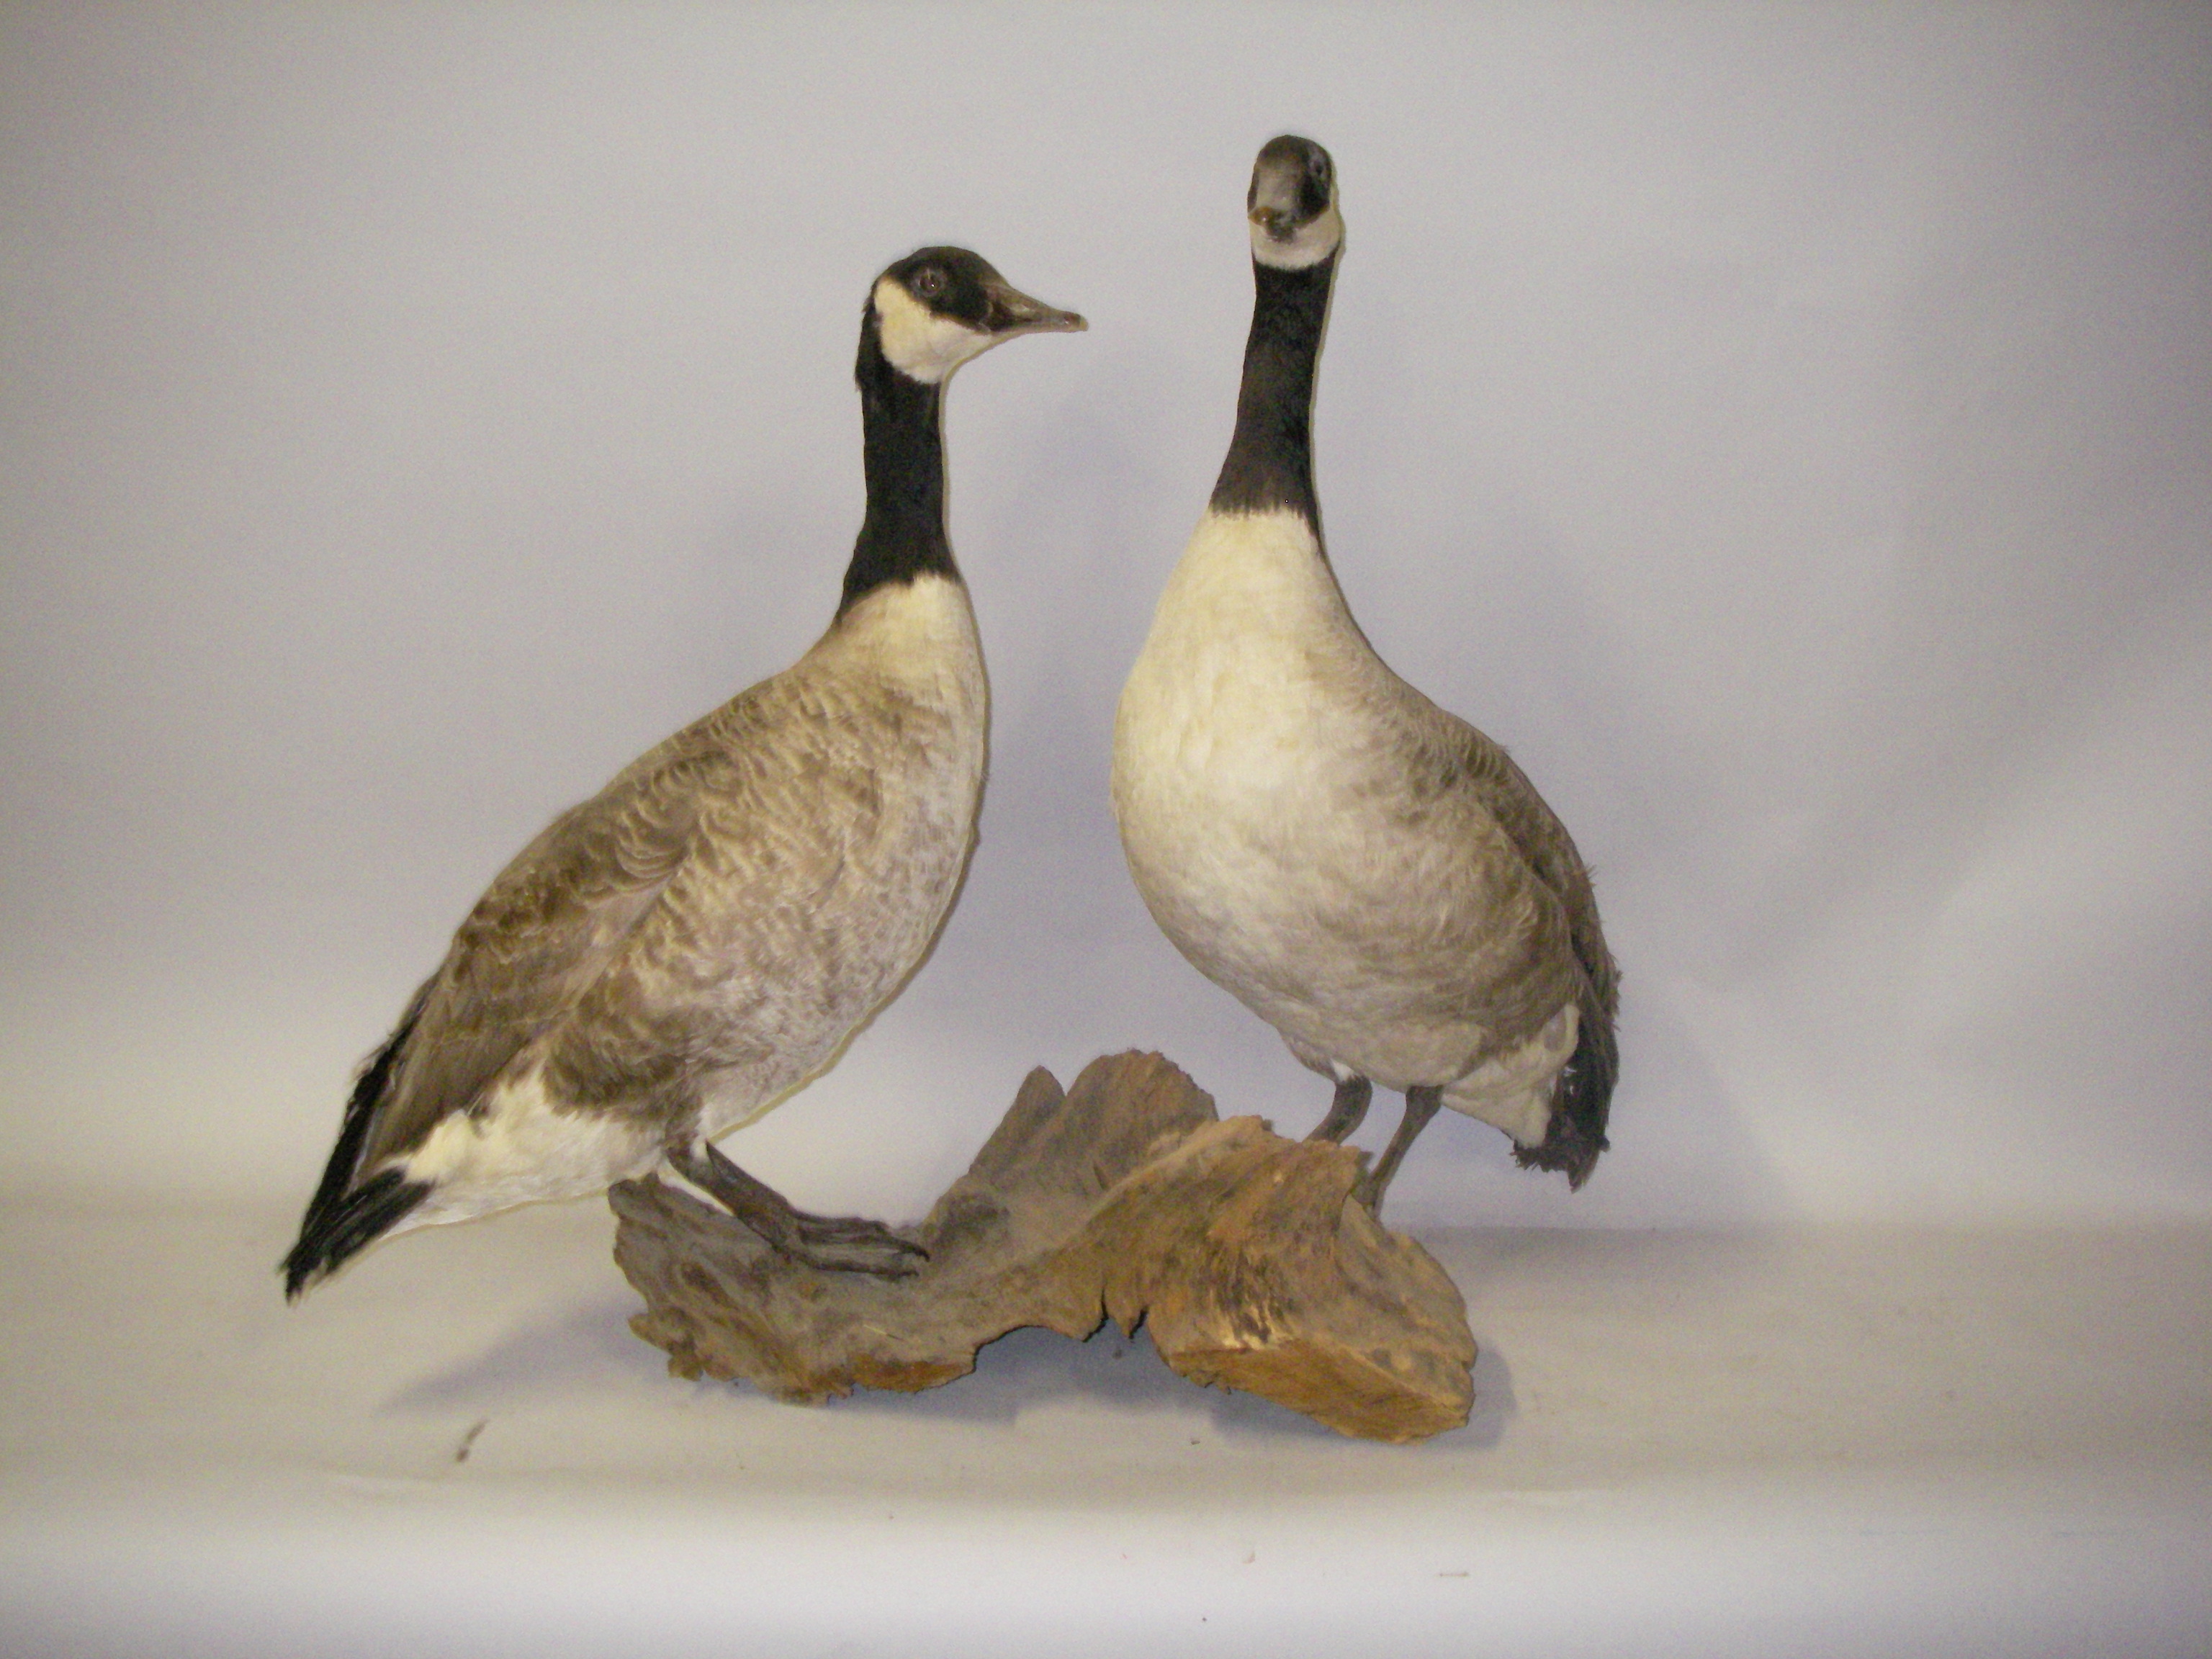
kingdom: Animalia
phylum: Chordata
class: Aves
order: Anseriformes
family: Anatidae
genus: Branta
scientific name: Branta canadensis
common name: Canada goose
